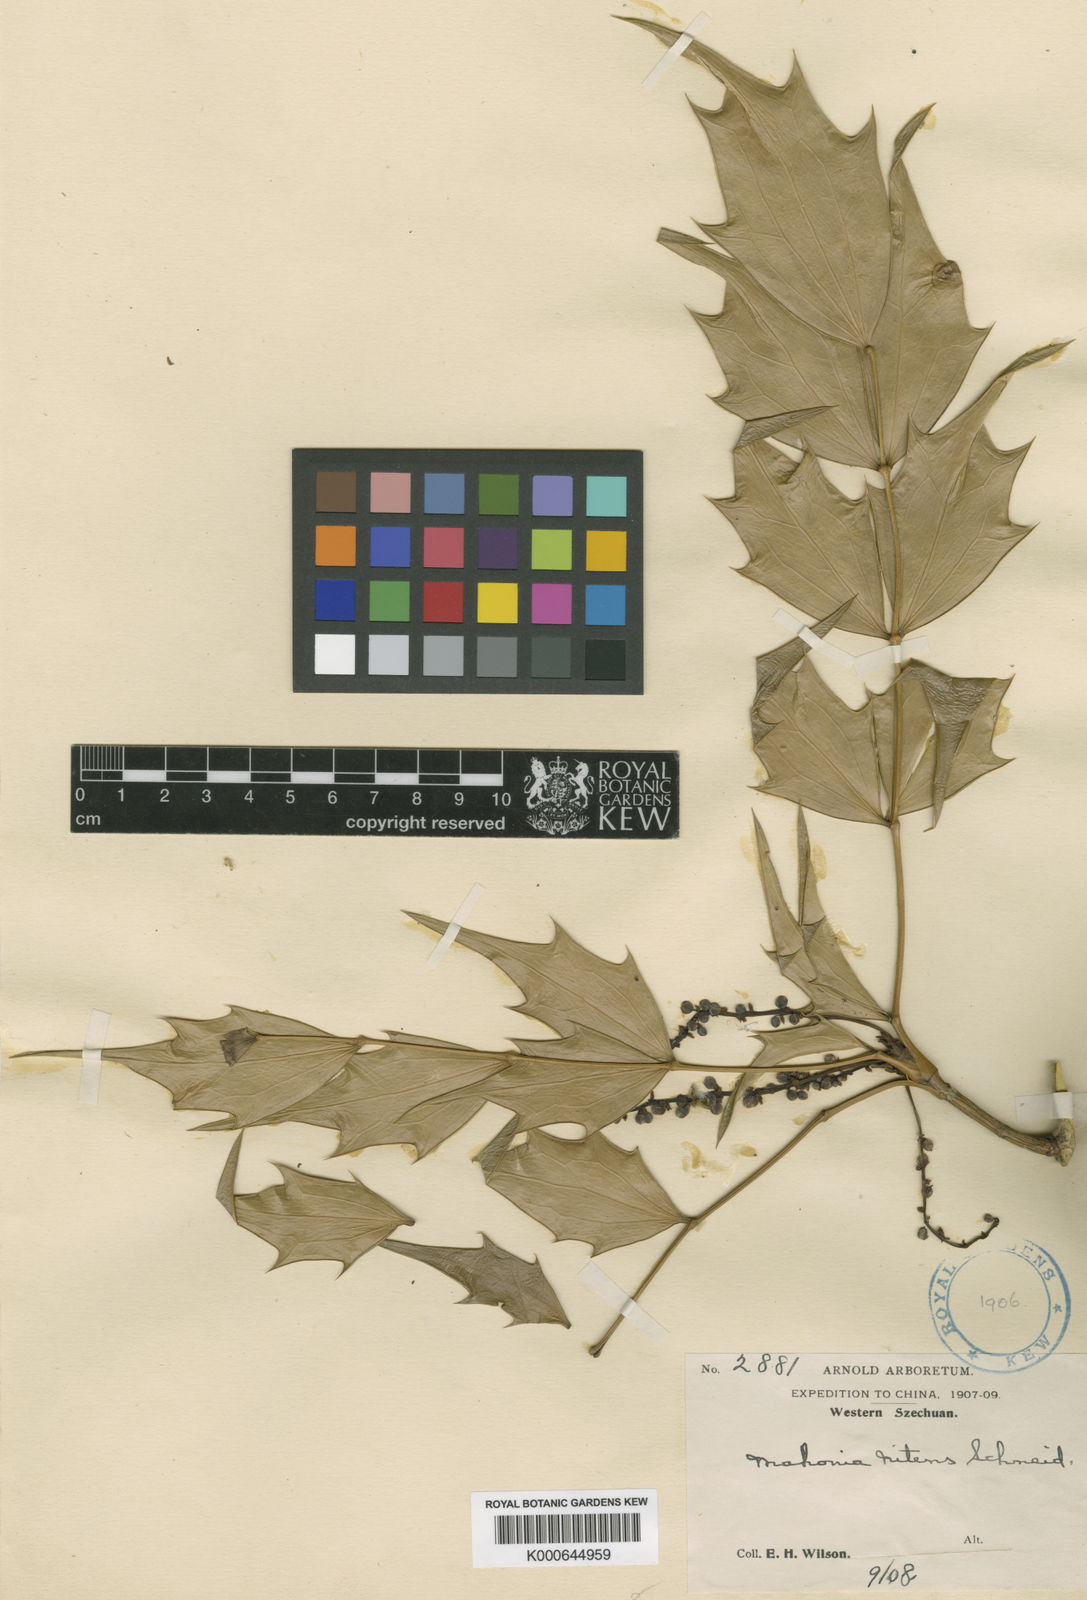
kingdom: Plantae
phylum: Tracheophyta
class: Magnoliopsida
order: Ranunculales
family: Berberidaceae
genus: Mahonia
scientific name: Mahonia schochii
